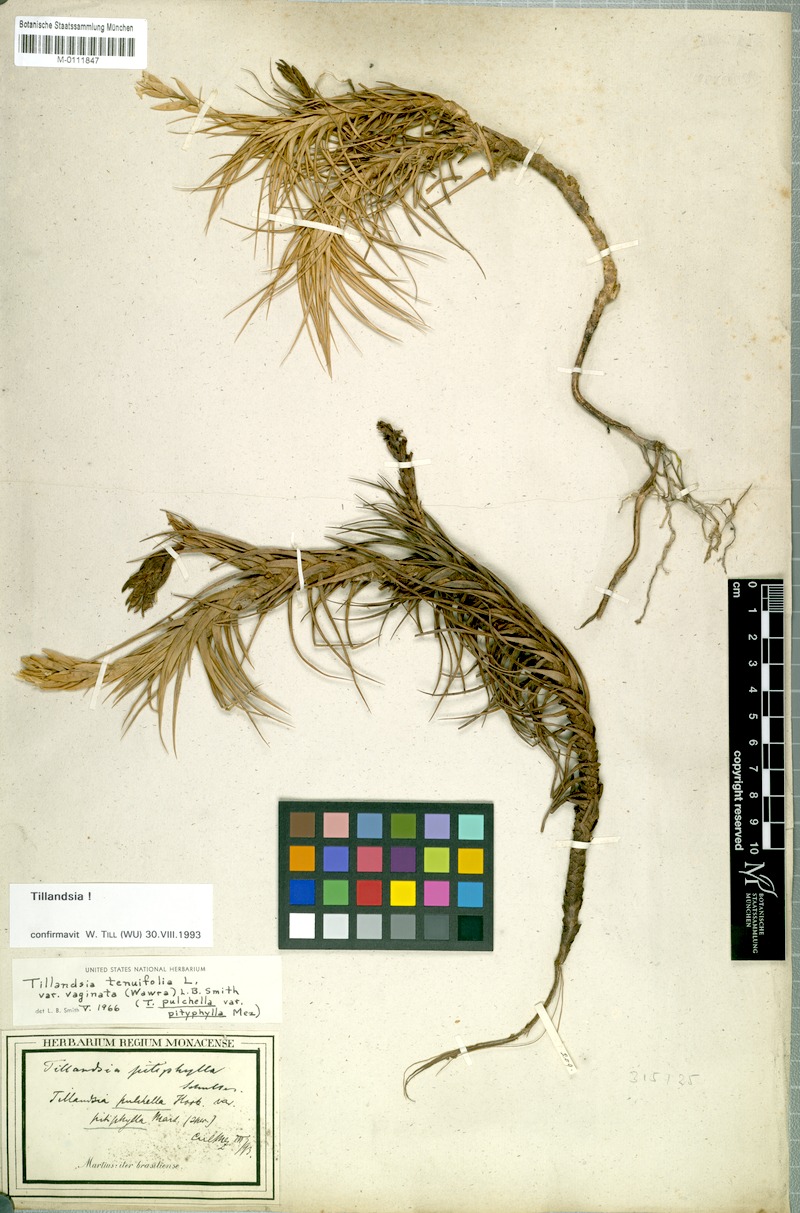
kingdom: Plantae
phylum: Tracheophyta
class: Liliopsida
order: Poales
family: Bromeliaceae
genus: Tillandsia
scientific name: Tillandsia tenuifolia
